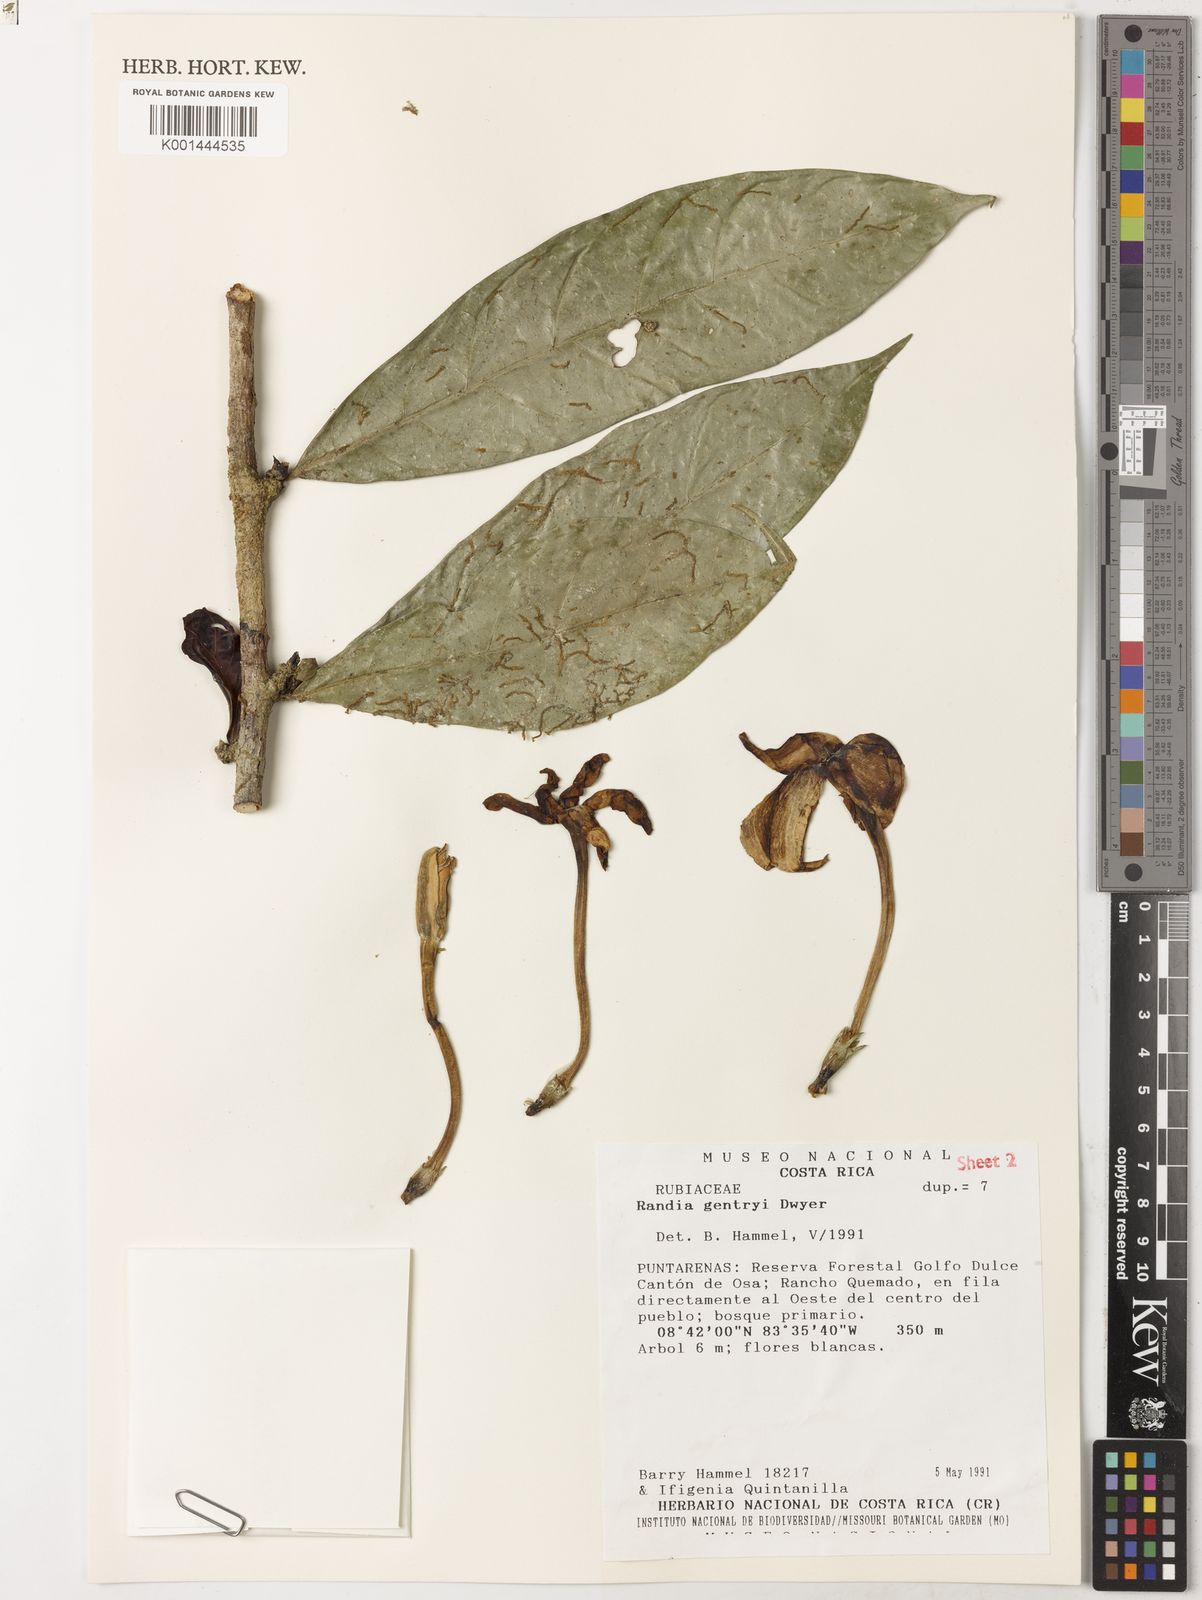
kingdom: Plantae
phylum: Tracheophyta
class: Magnoliopsida
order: Gentianales
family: Rubiaceae
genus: Randia
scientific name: Randia gentryi
